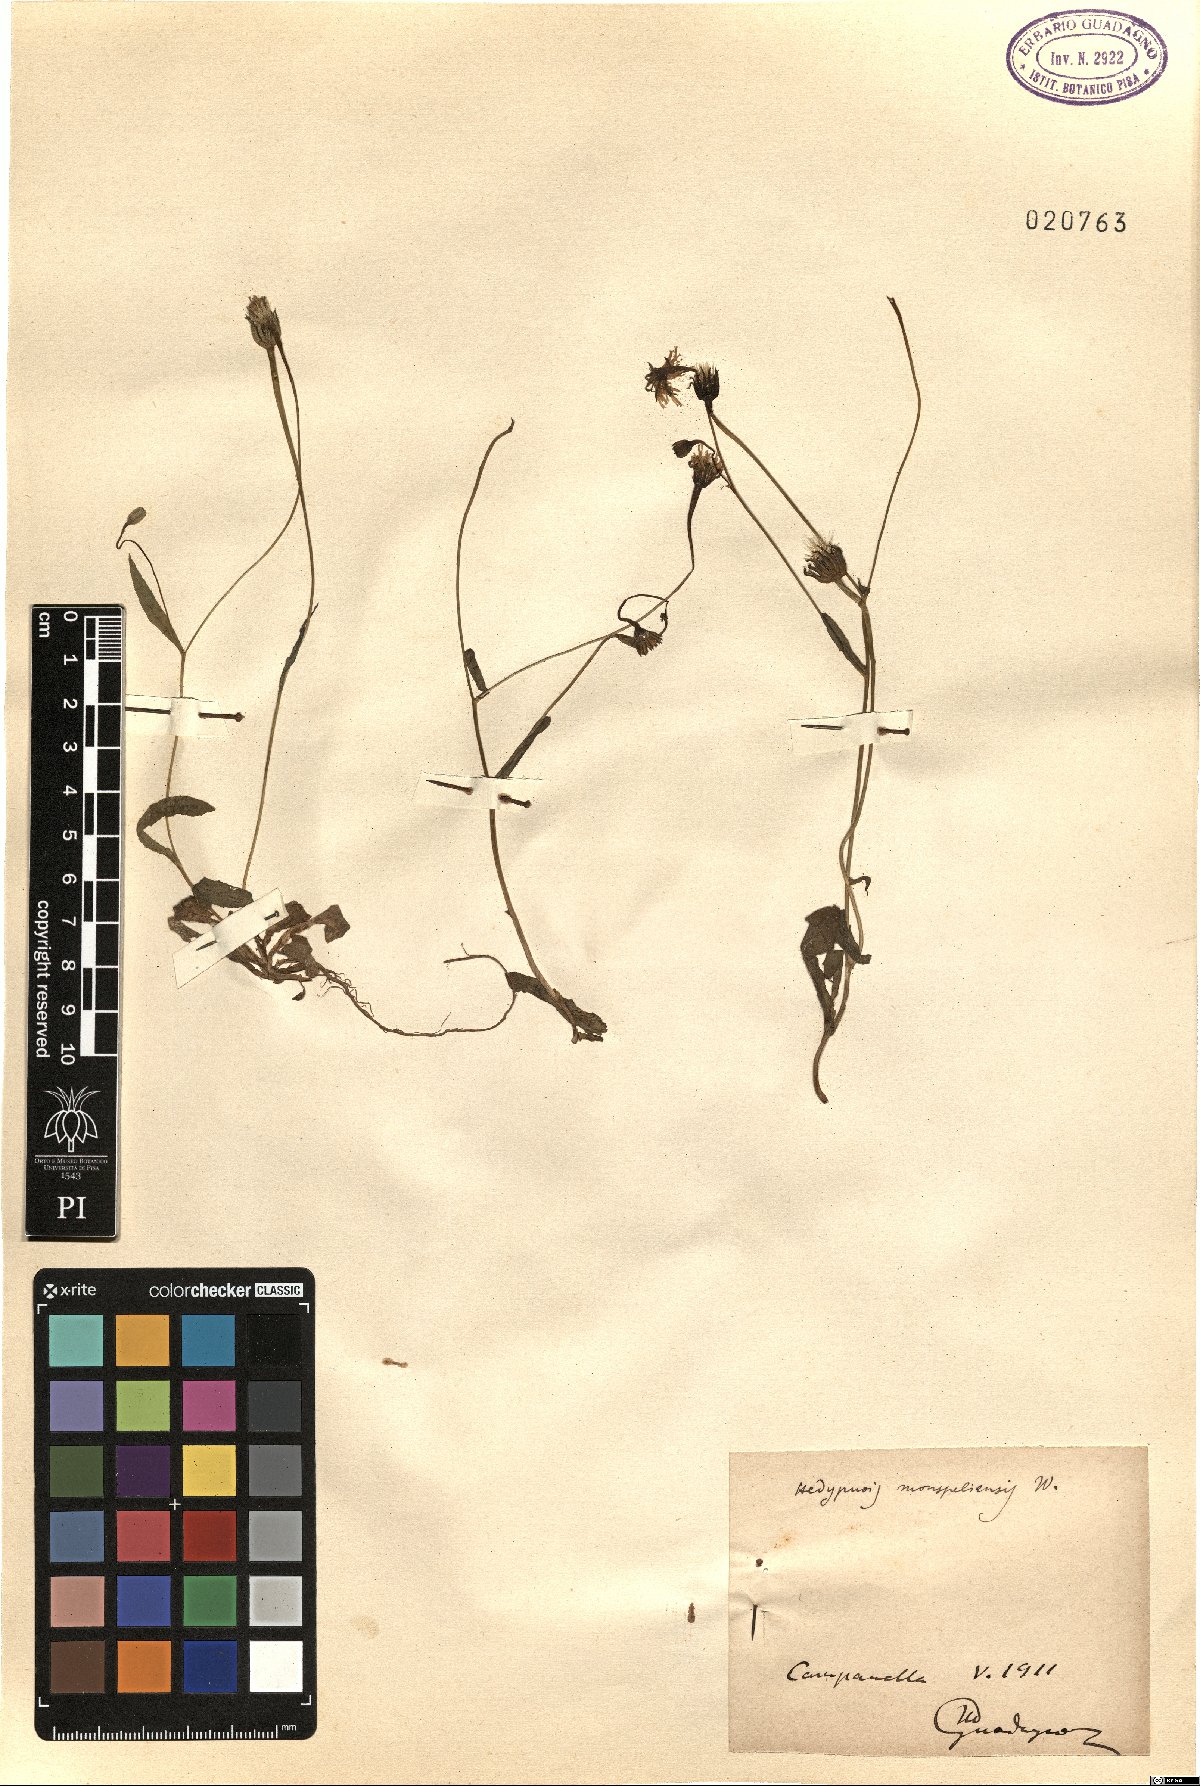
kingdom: Plantae
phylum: Tracheophyta
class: Magnoliopsida
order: Asterales
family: Asteraceae
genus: Hedypnois
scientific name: Hedypnois rhagadioloides
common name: Cretan weed
